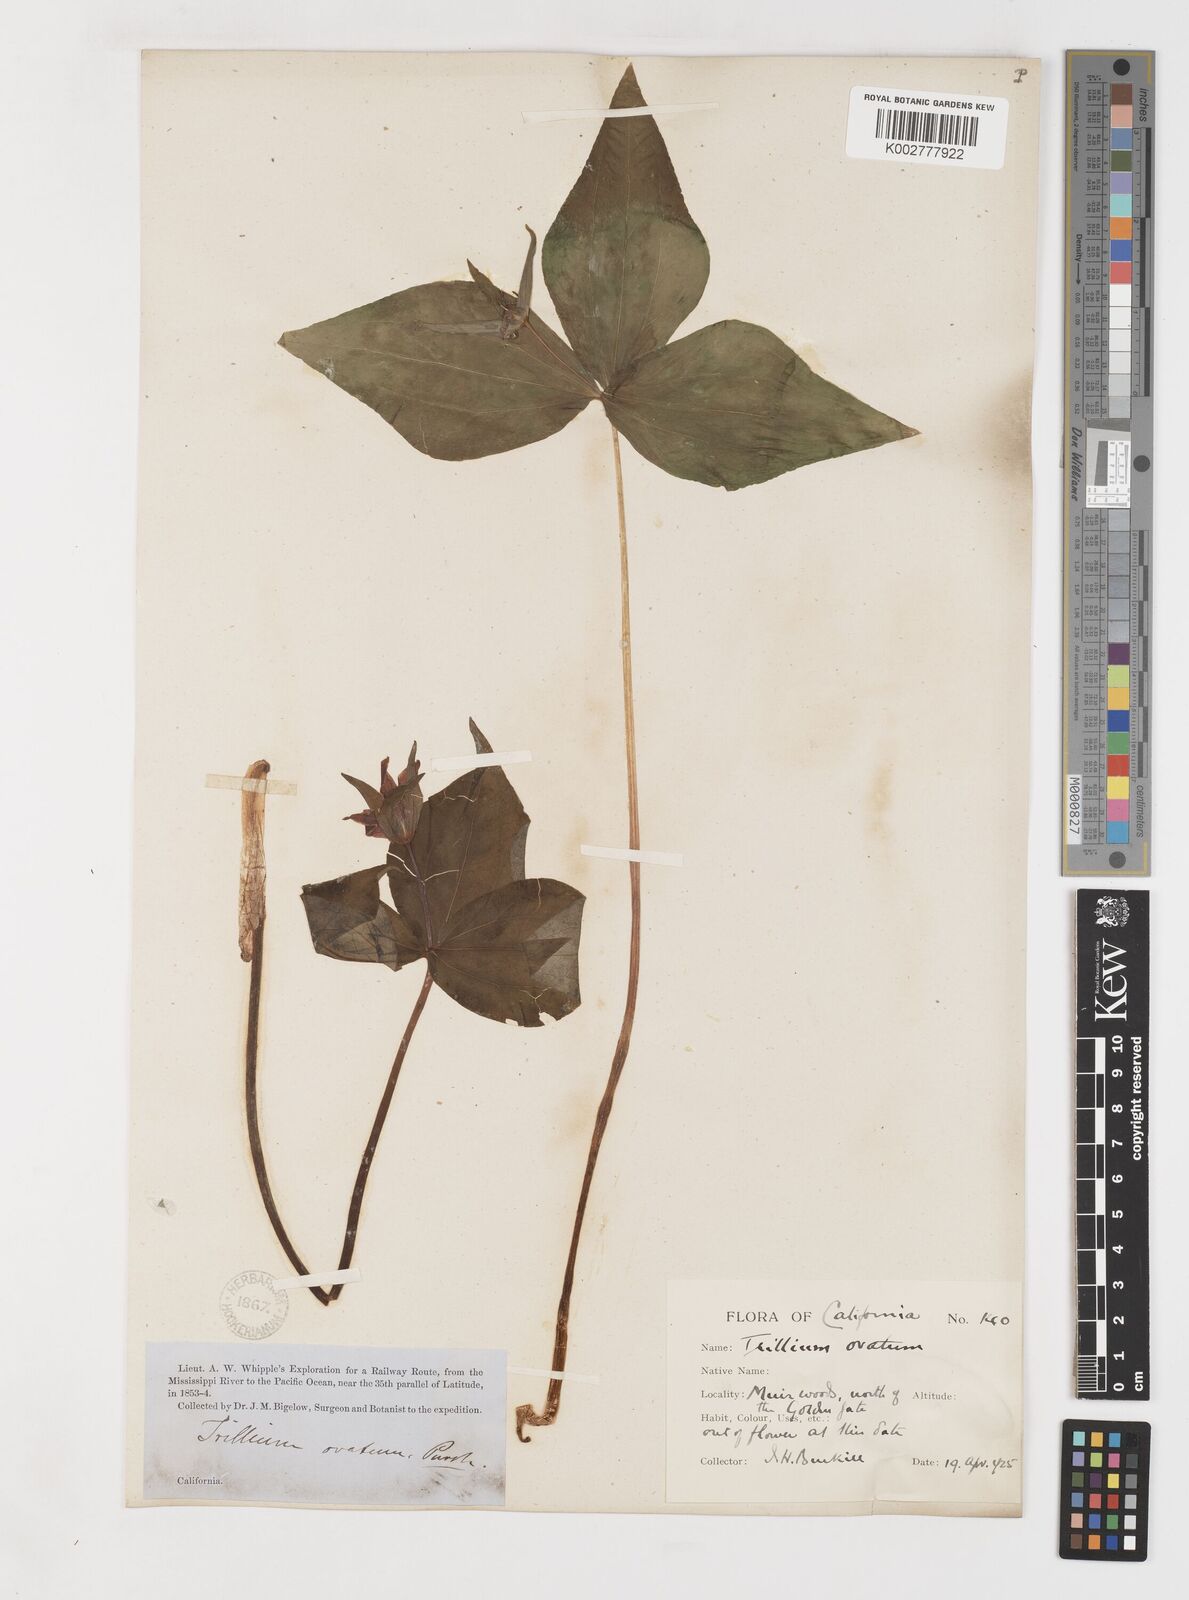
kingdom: Plantae
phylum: Tracheophyta
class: Liliopsida
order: Liliales
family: Melanthiaceae
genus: Trillium
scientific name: Trillium grandiflorum
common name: Great white trillium
